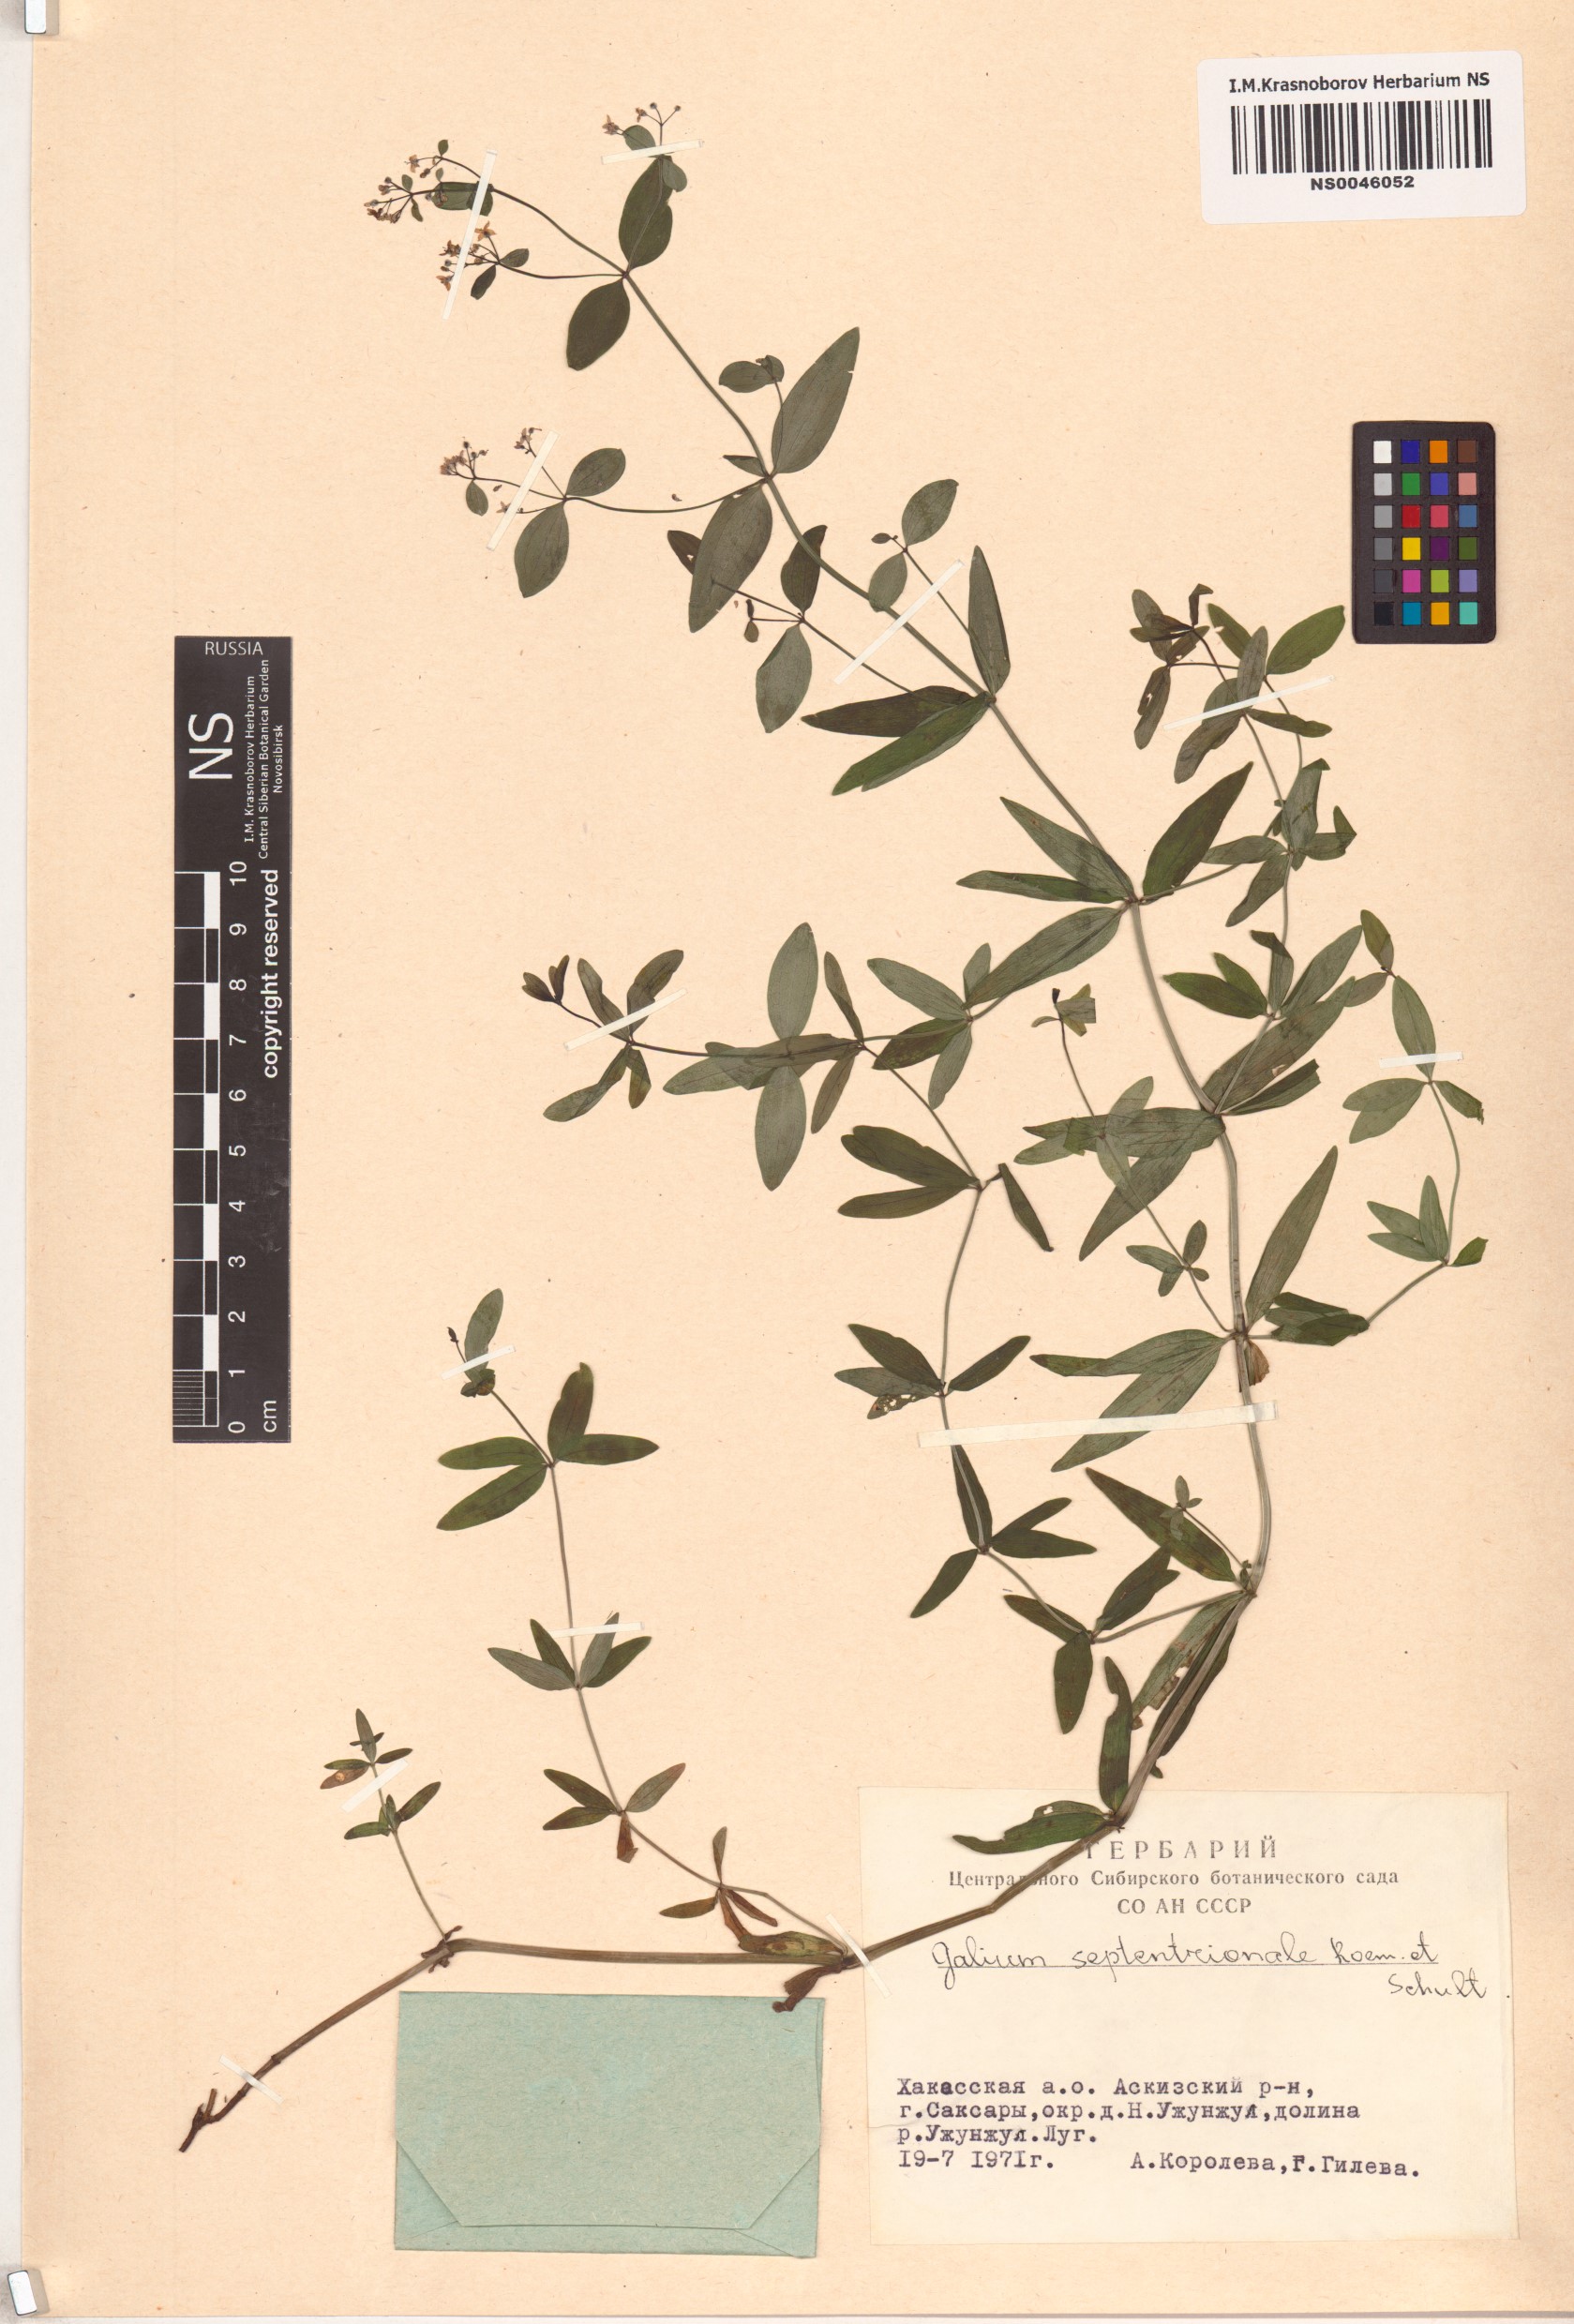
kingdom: Plantae
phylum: Tracheophyta
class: Magnoliopsida
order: Gentianales
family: Rubiaceae
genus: Galium
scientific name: Galium boreale
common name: Northern bedstraw
